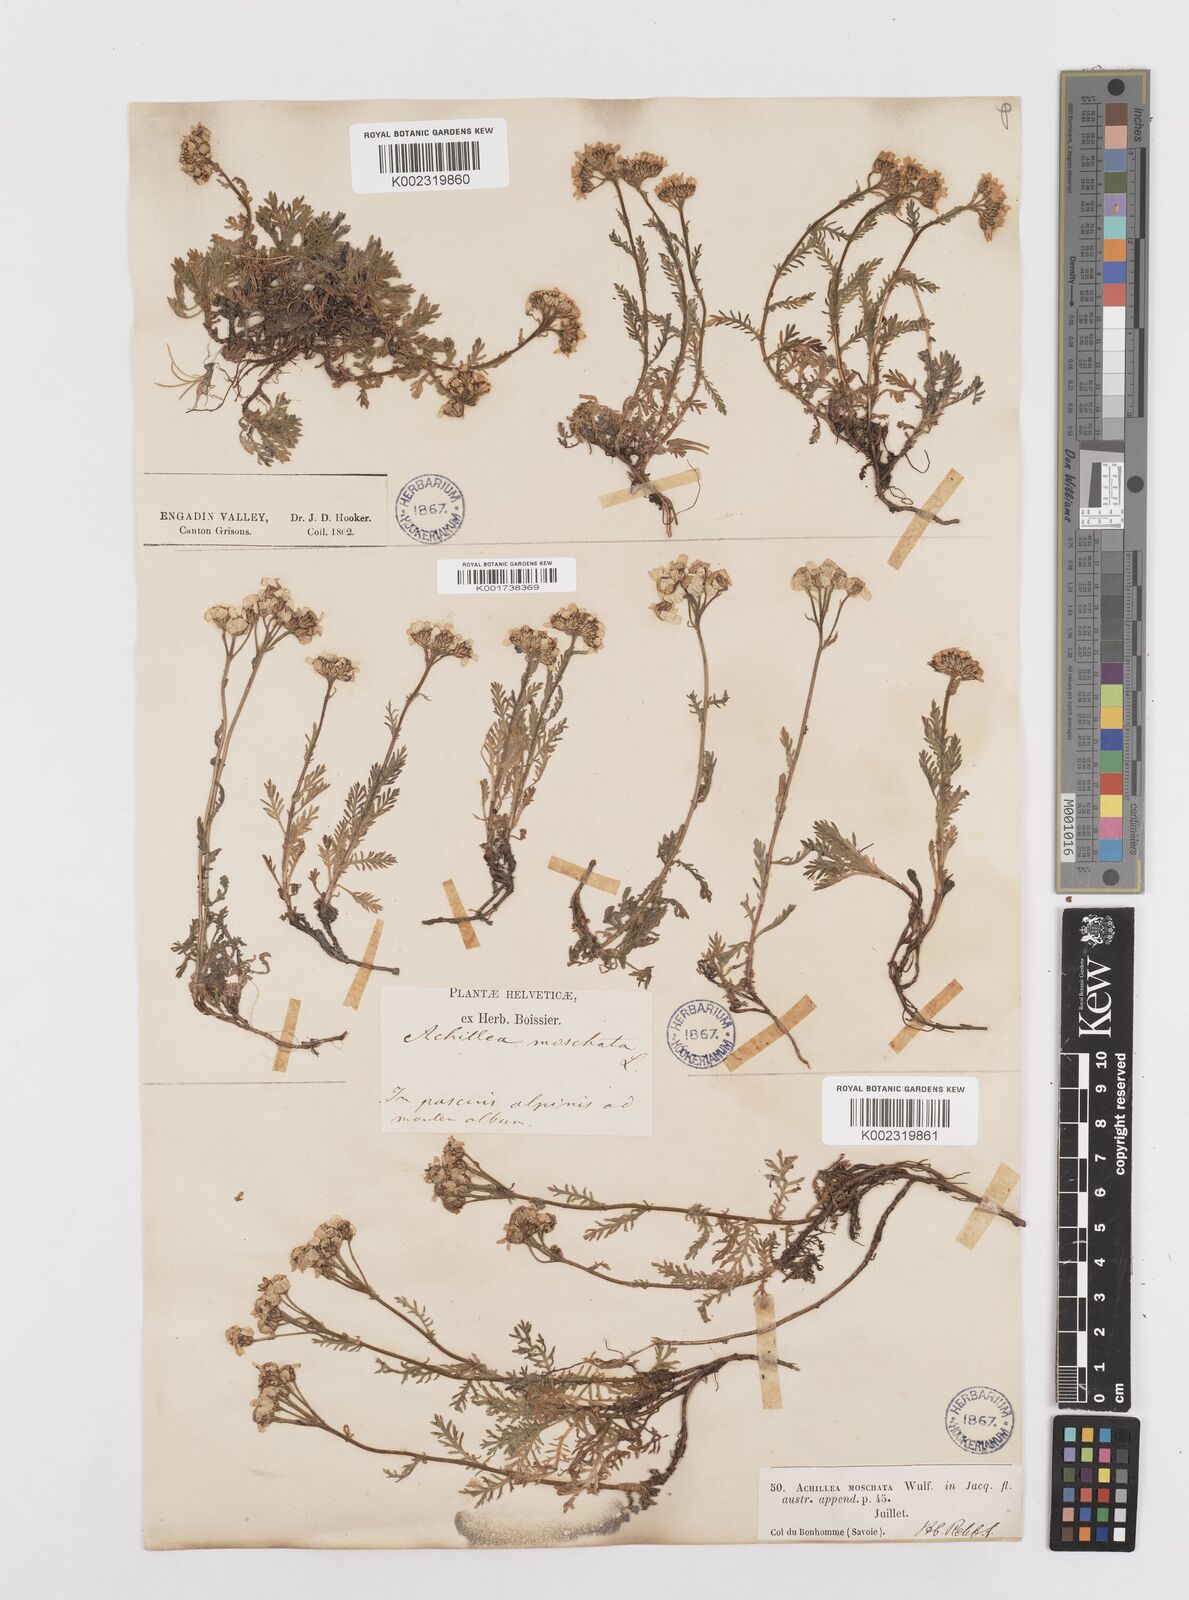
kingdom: Plantae
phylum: Tracheophyta
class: Magnoliopsida
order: Asterales
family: Asteraceae
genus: Achillea
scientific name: Achillea erba-rotta
